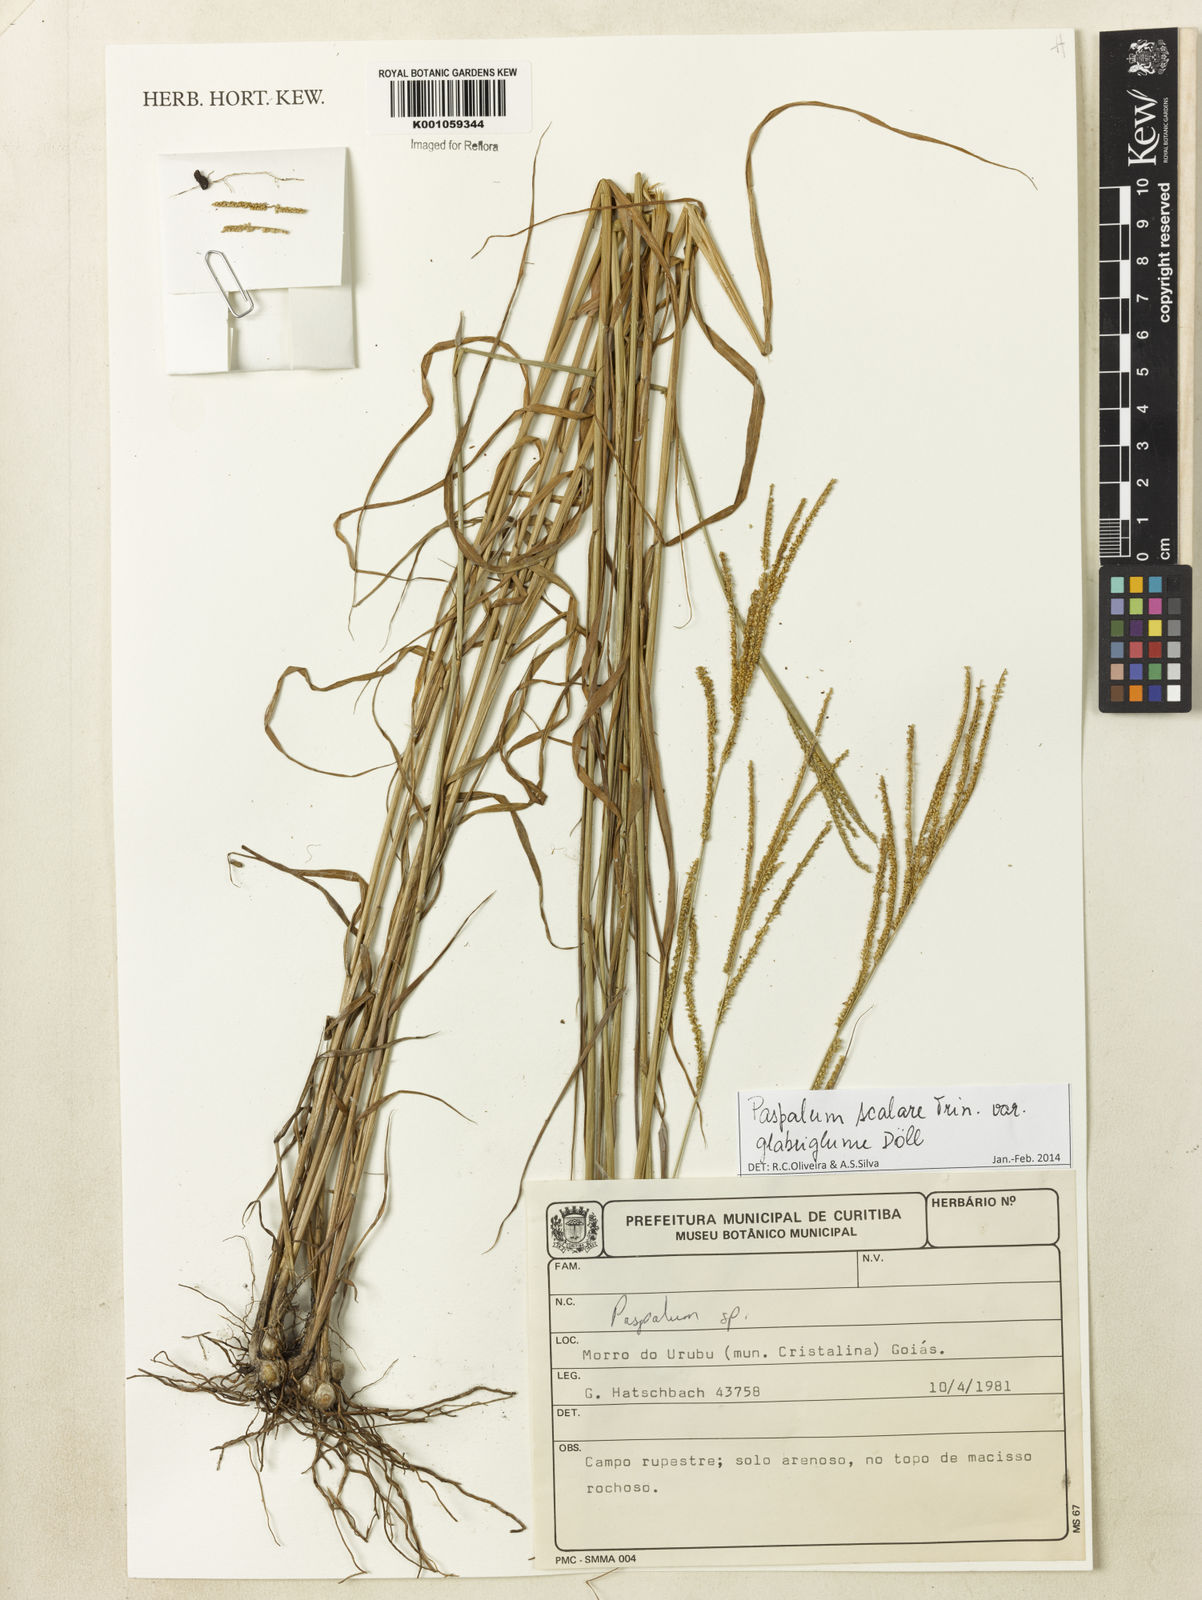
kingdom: Plantae
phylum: Tracheophyta
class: Liliopsida
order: Poales
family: Poaceae
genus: Paspalum
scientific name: Paspalum
